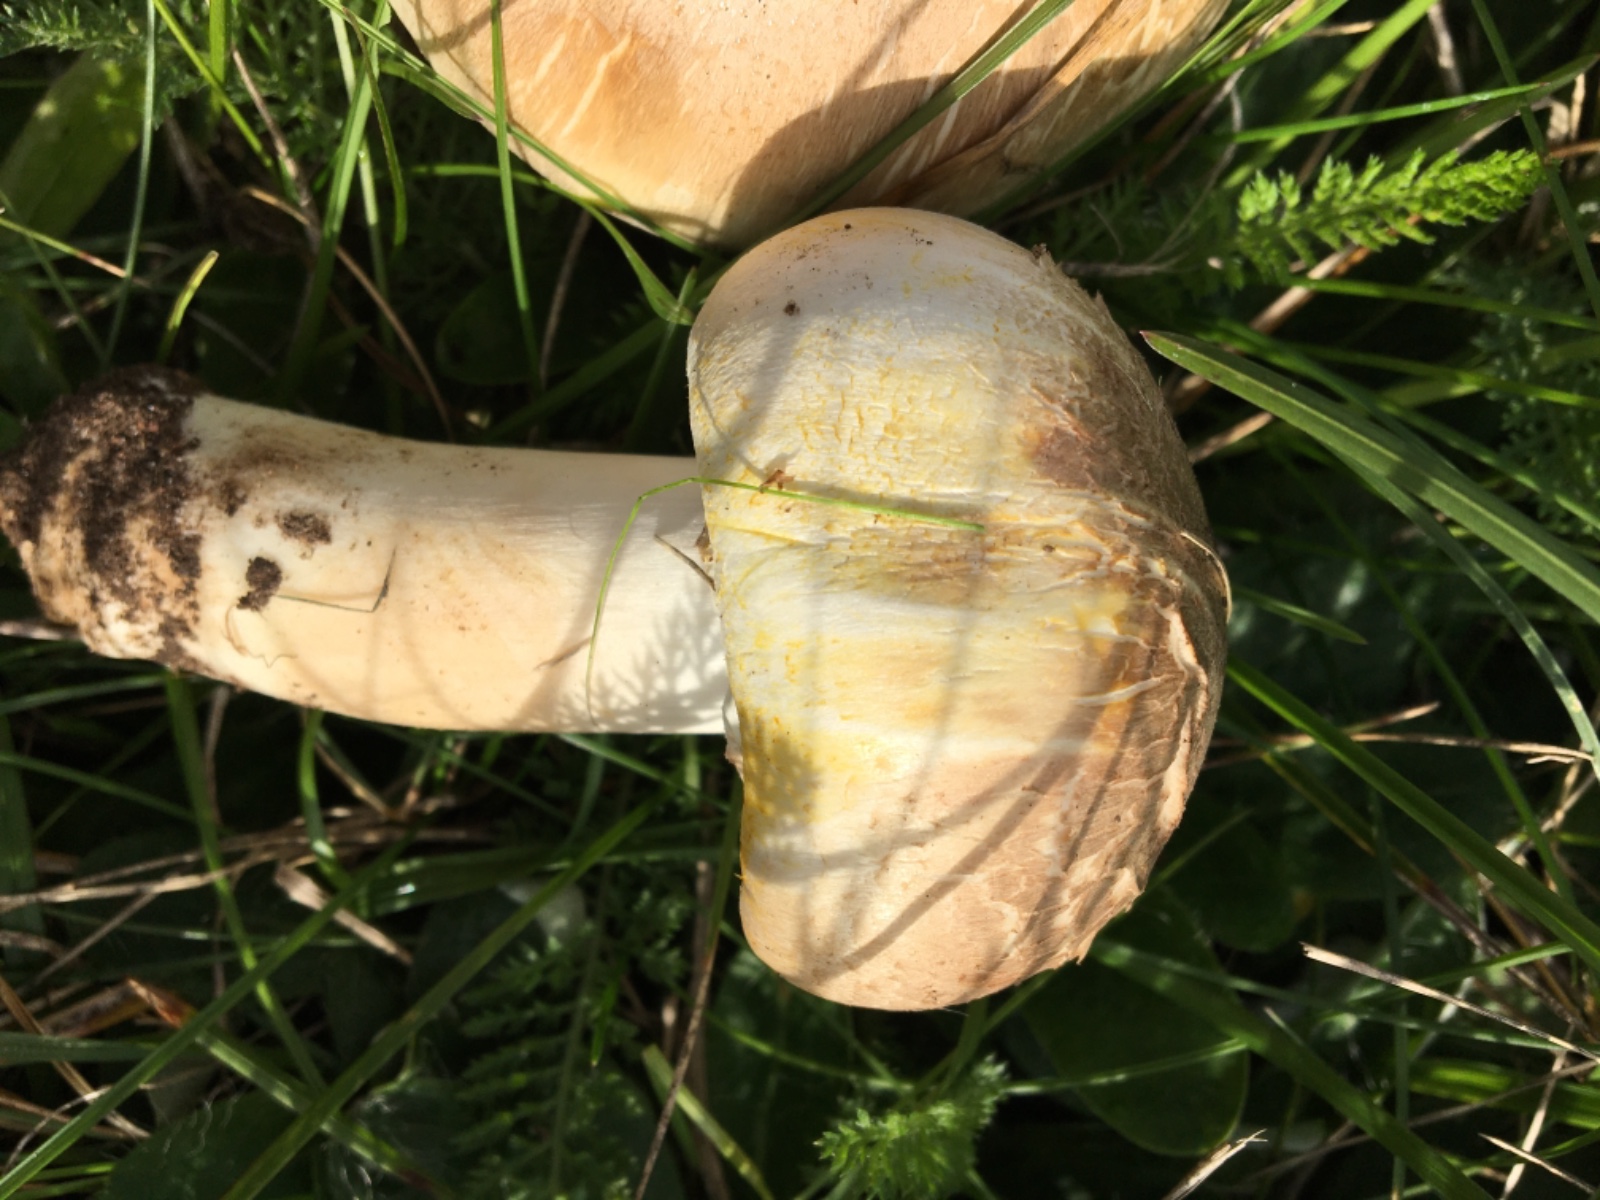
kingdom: Fungi
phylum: Basidiomycota
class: Agaricomycetes
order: Agaricales
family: Agaricaceae
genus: Agaricus
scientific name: Agaricus xanthodermus
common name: karbol-champignon
